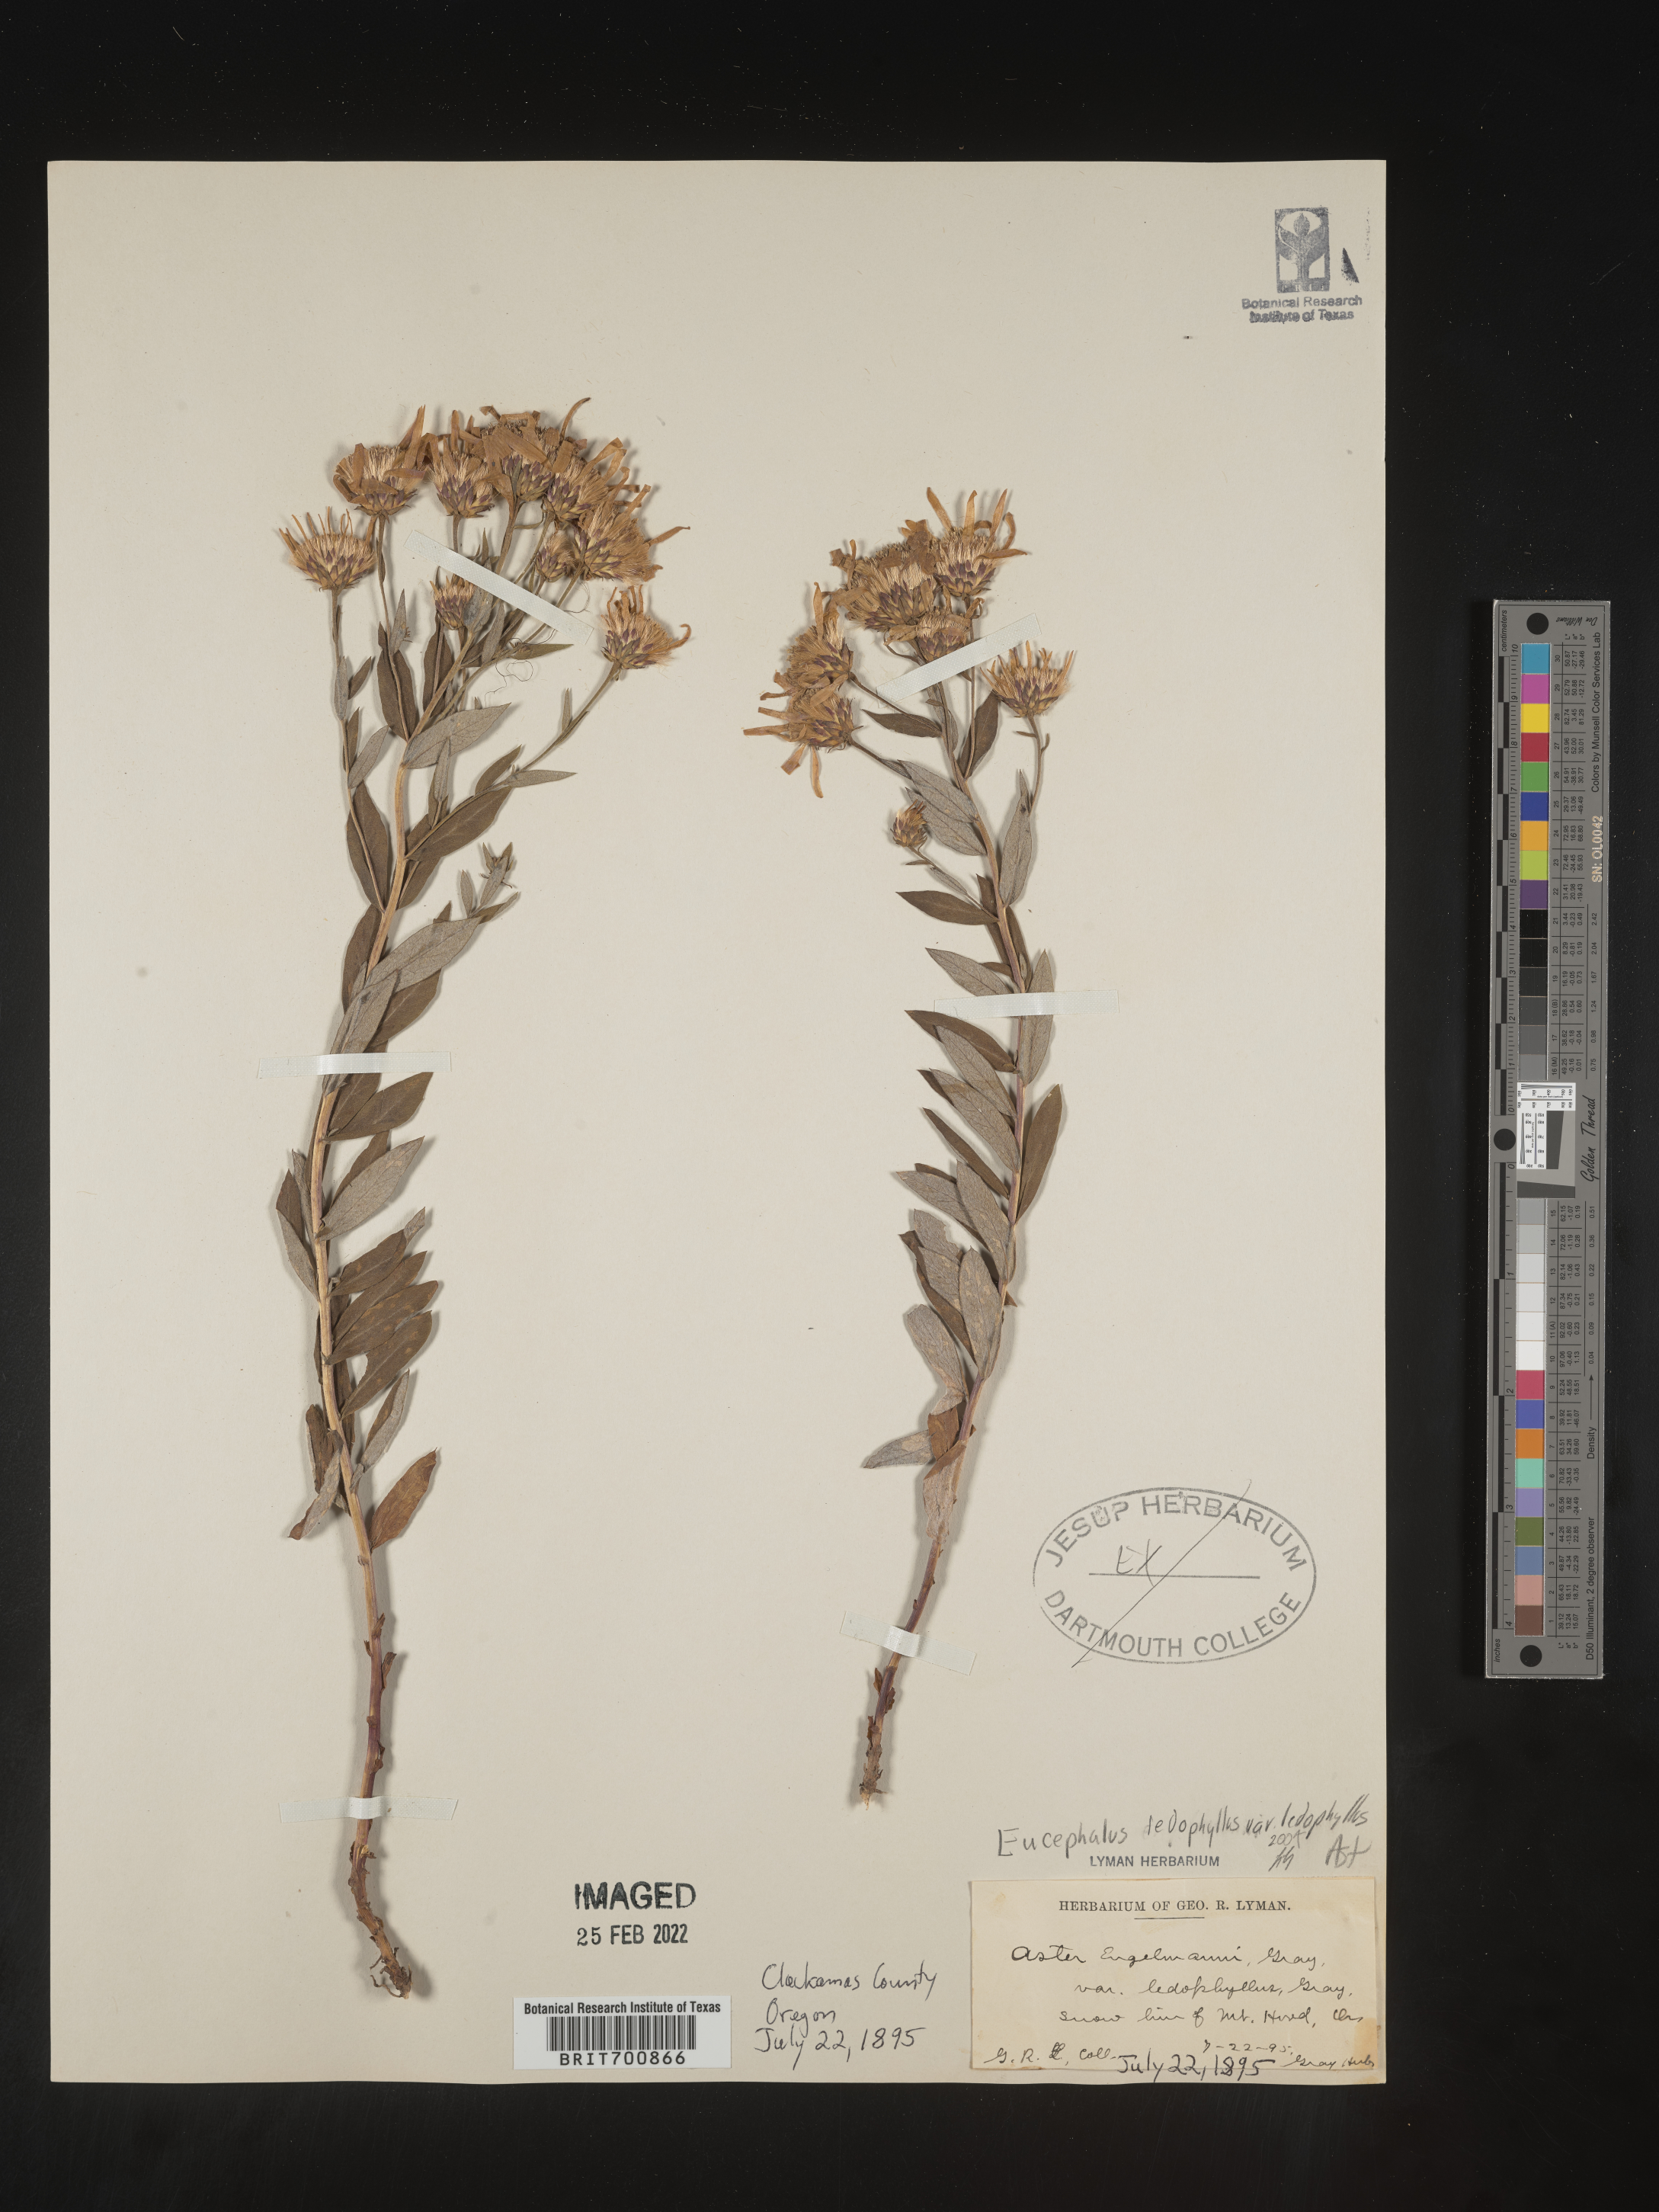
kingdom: Plantae
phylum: Tracheophyta
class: Magnoliopsida
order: Asterales
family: Asteraceae
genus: Eucephalus
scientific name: Eucephalus ledophyllus
